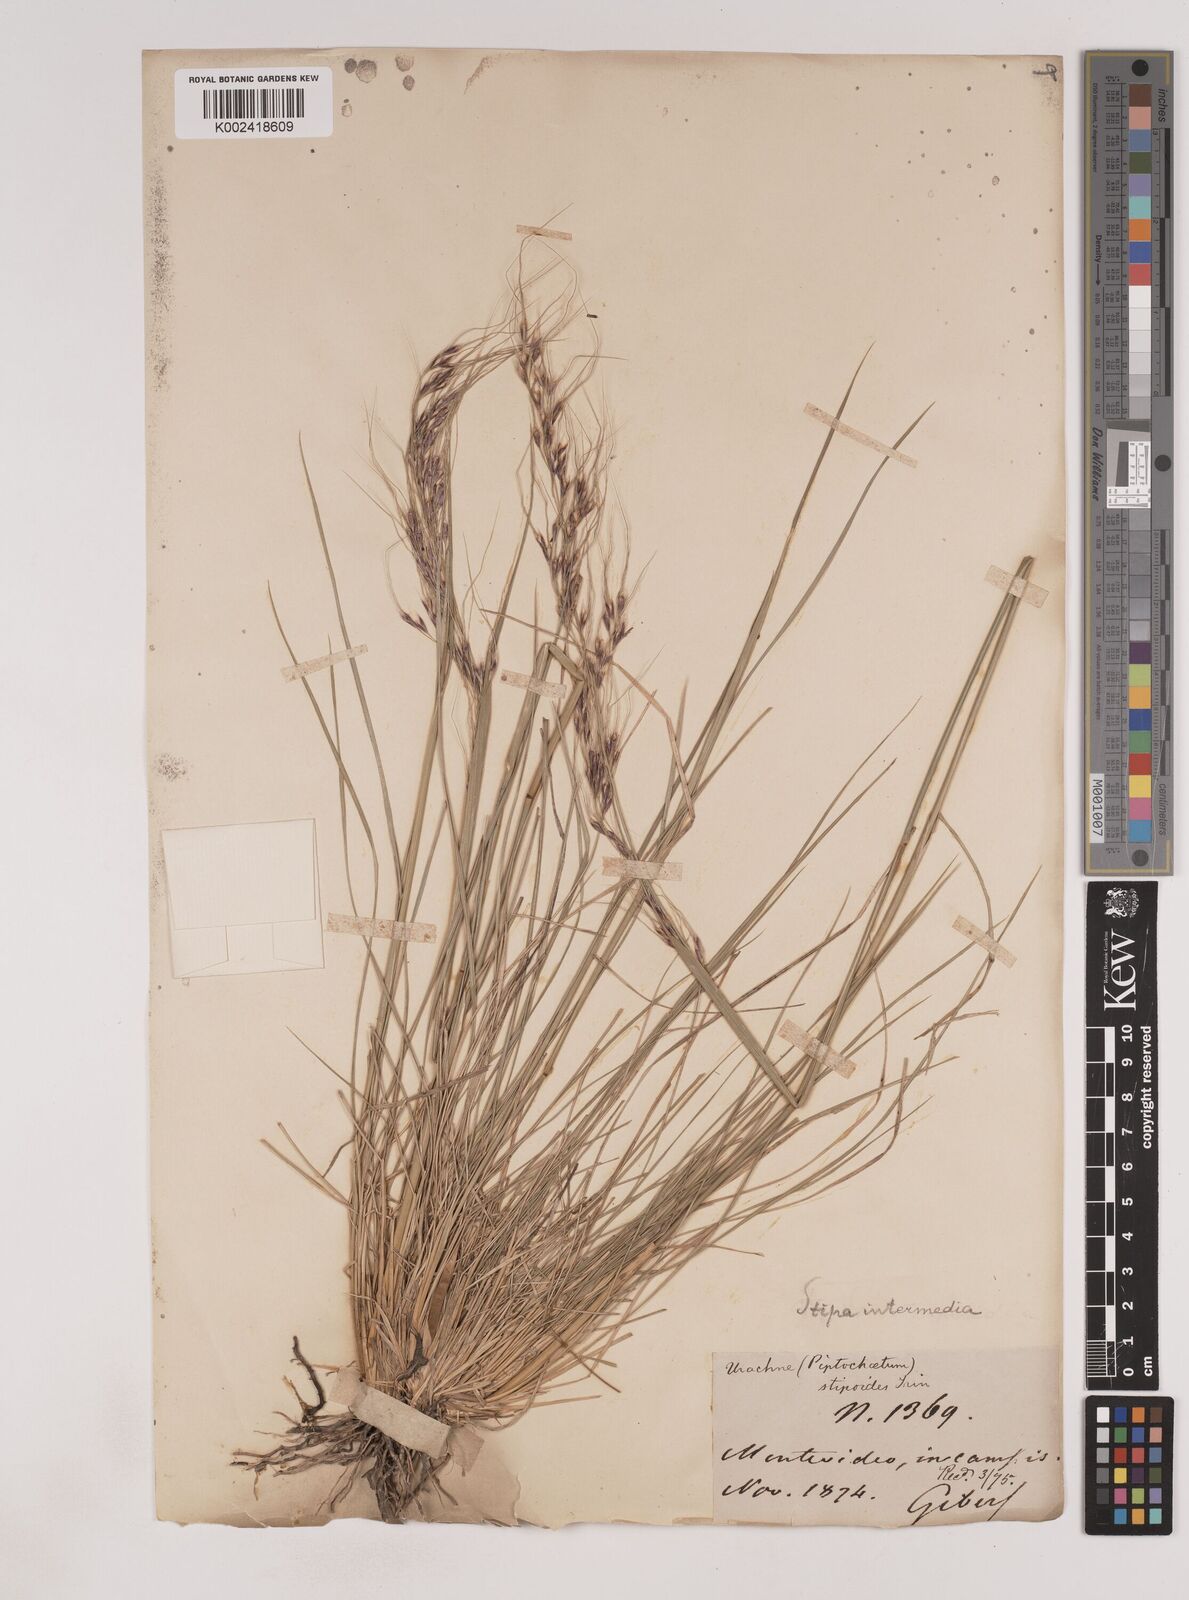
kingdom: Plantae
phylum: Tracheophyta
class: Liliopsida
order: Poales
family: Poaceae
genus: Piptochaetium
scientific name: Piptochaetium
